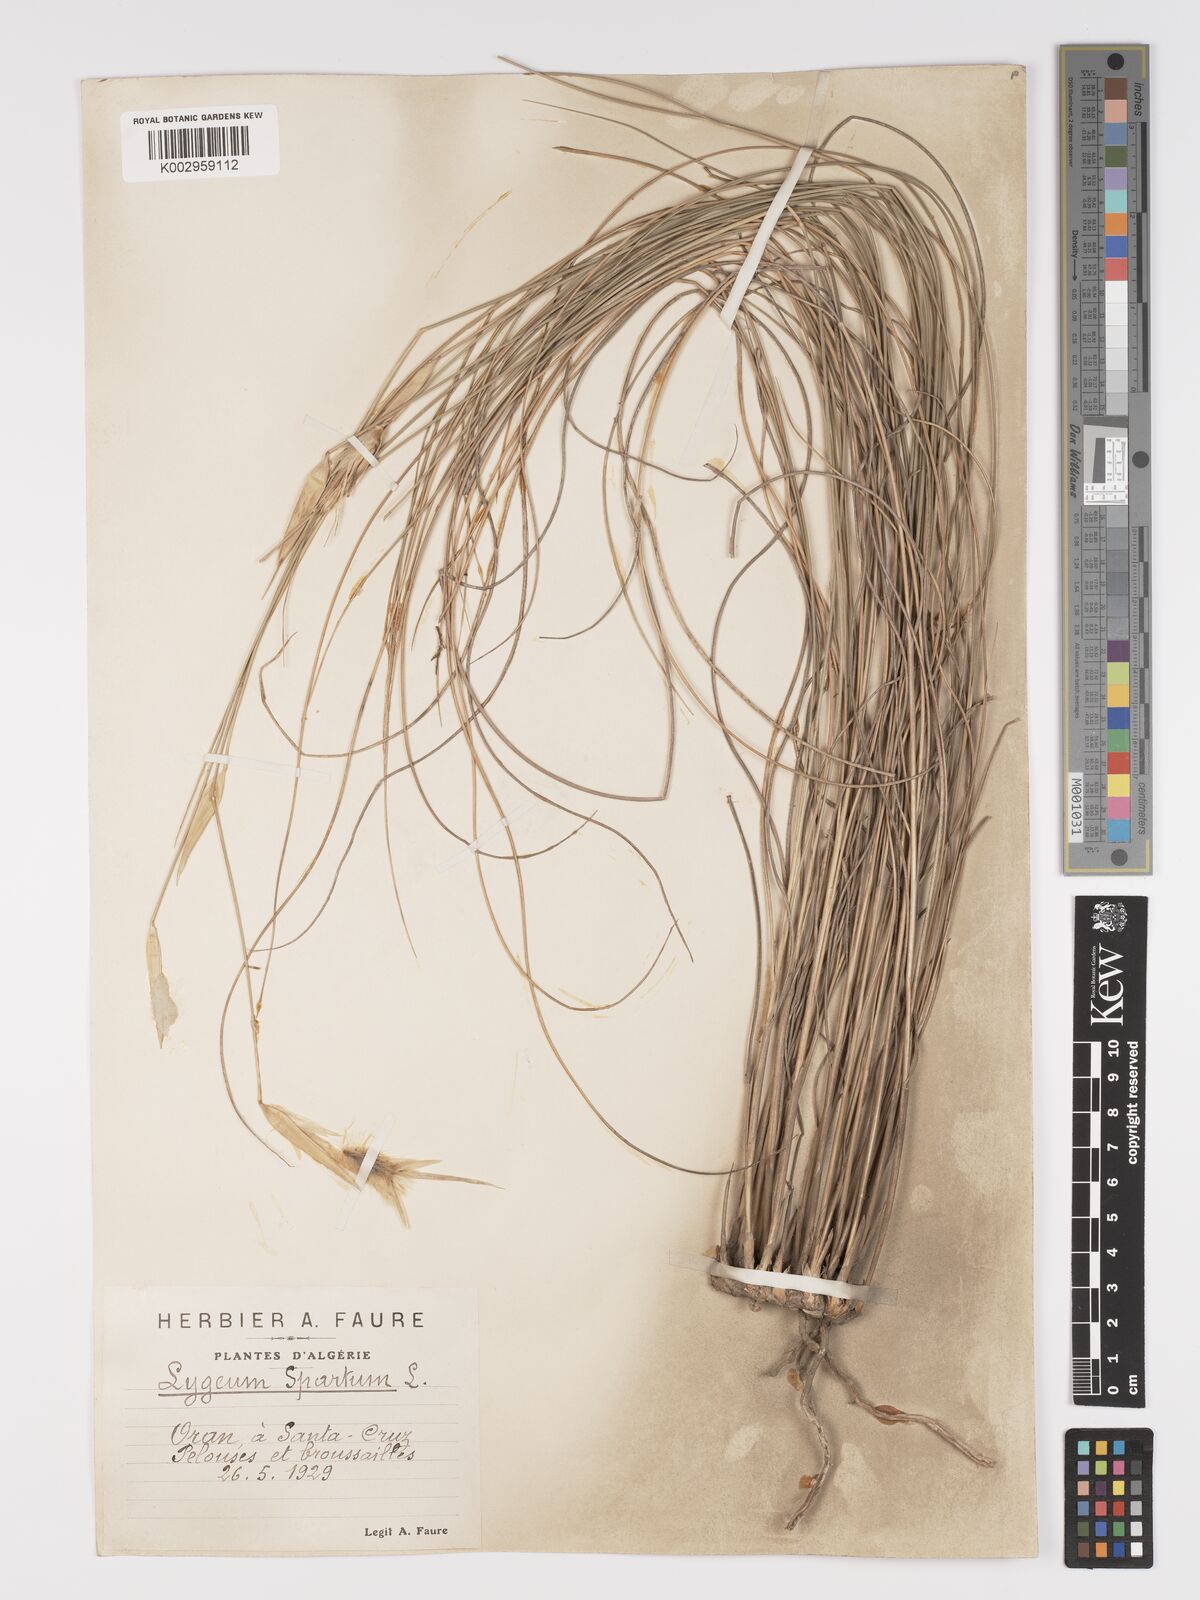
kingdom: Plantae
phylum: Tracheophyta
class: Liliopsida
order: Poales
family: Poaceae
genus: Lygeum
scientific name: Lygeum spartum
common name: Albardine
